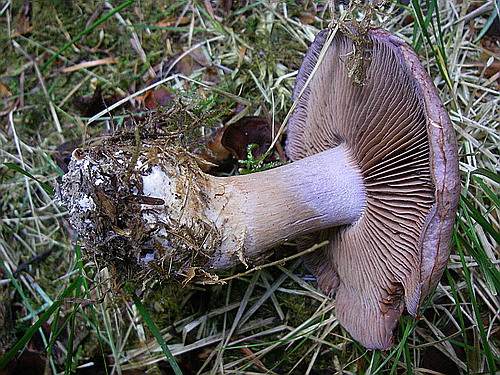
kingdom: Fungi
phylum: Basidiomycota
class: Agaricomycetes
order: Agaricales
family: Cortinariaceae
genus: Phlegmacium
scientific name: Phlegmacium eliae
